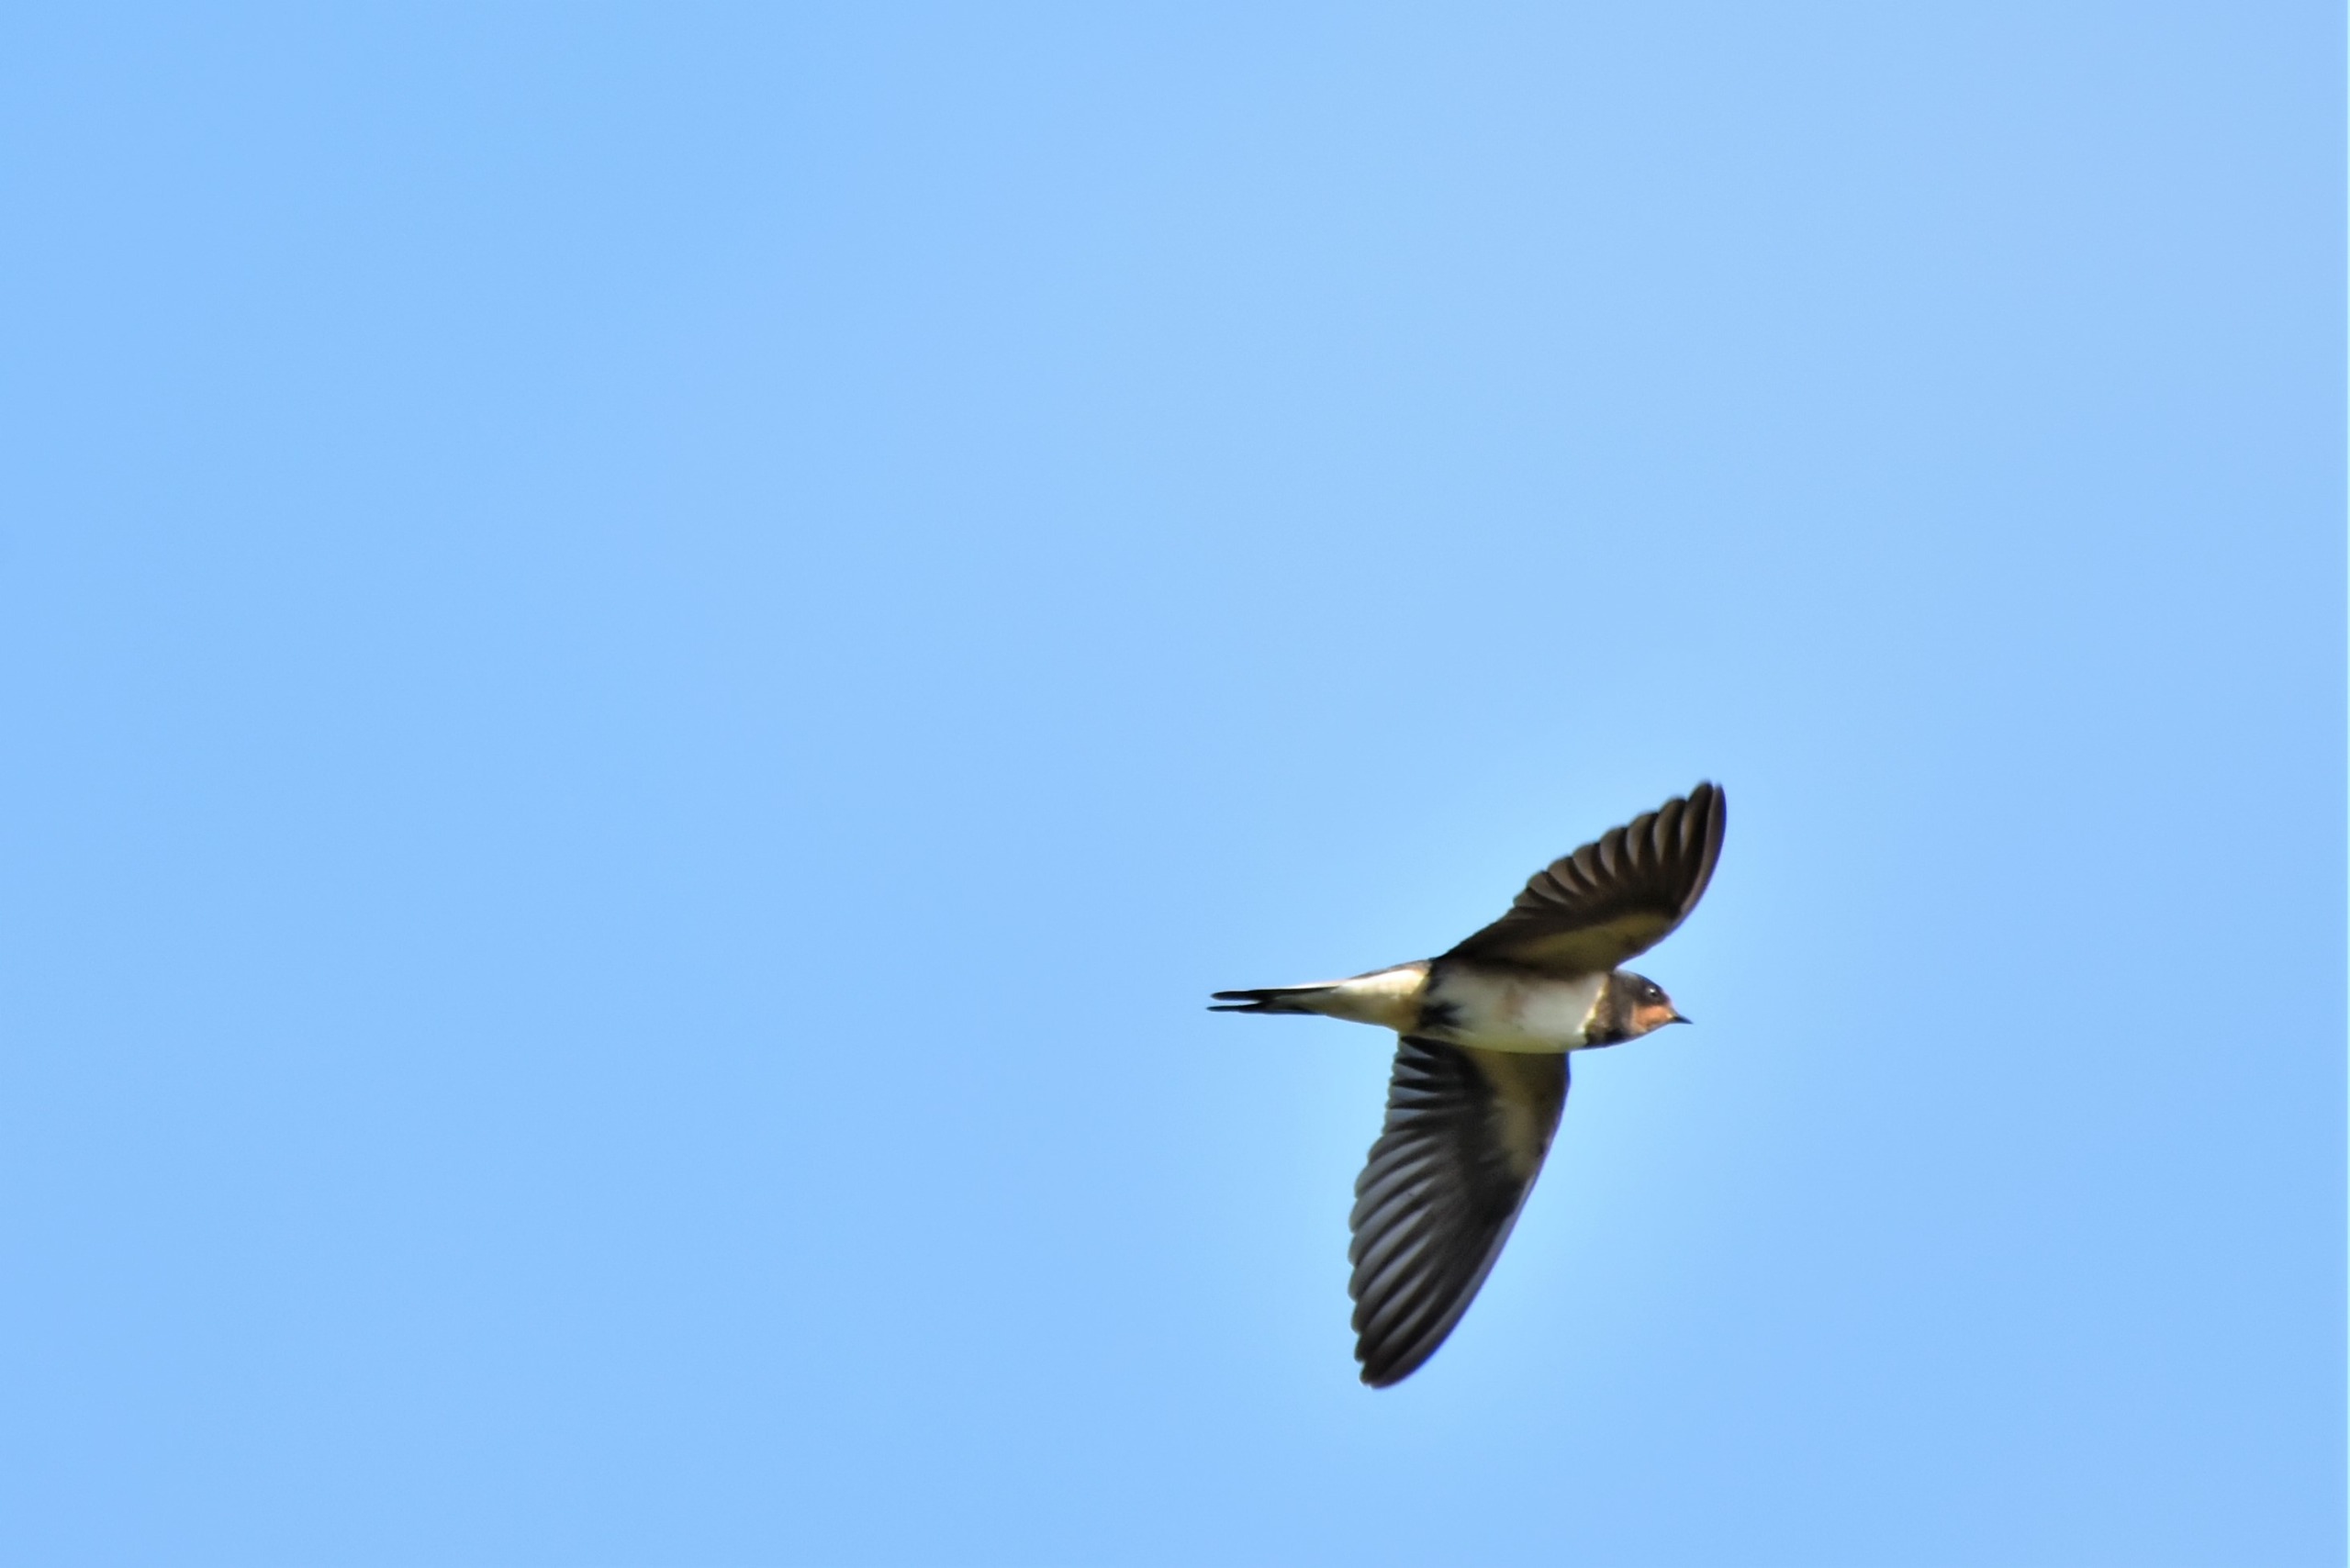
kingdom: Animalia
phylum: Chordata
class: Aves
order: Passeriformes
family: Hirundinidae
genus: Hirundo
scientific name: Hirundo rustica
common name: Landsvale
